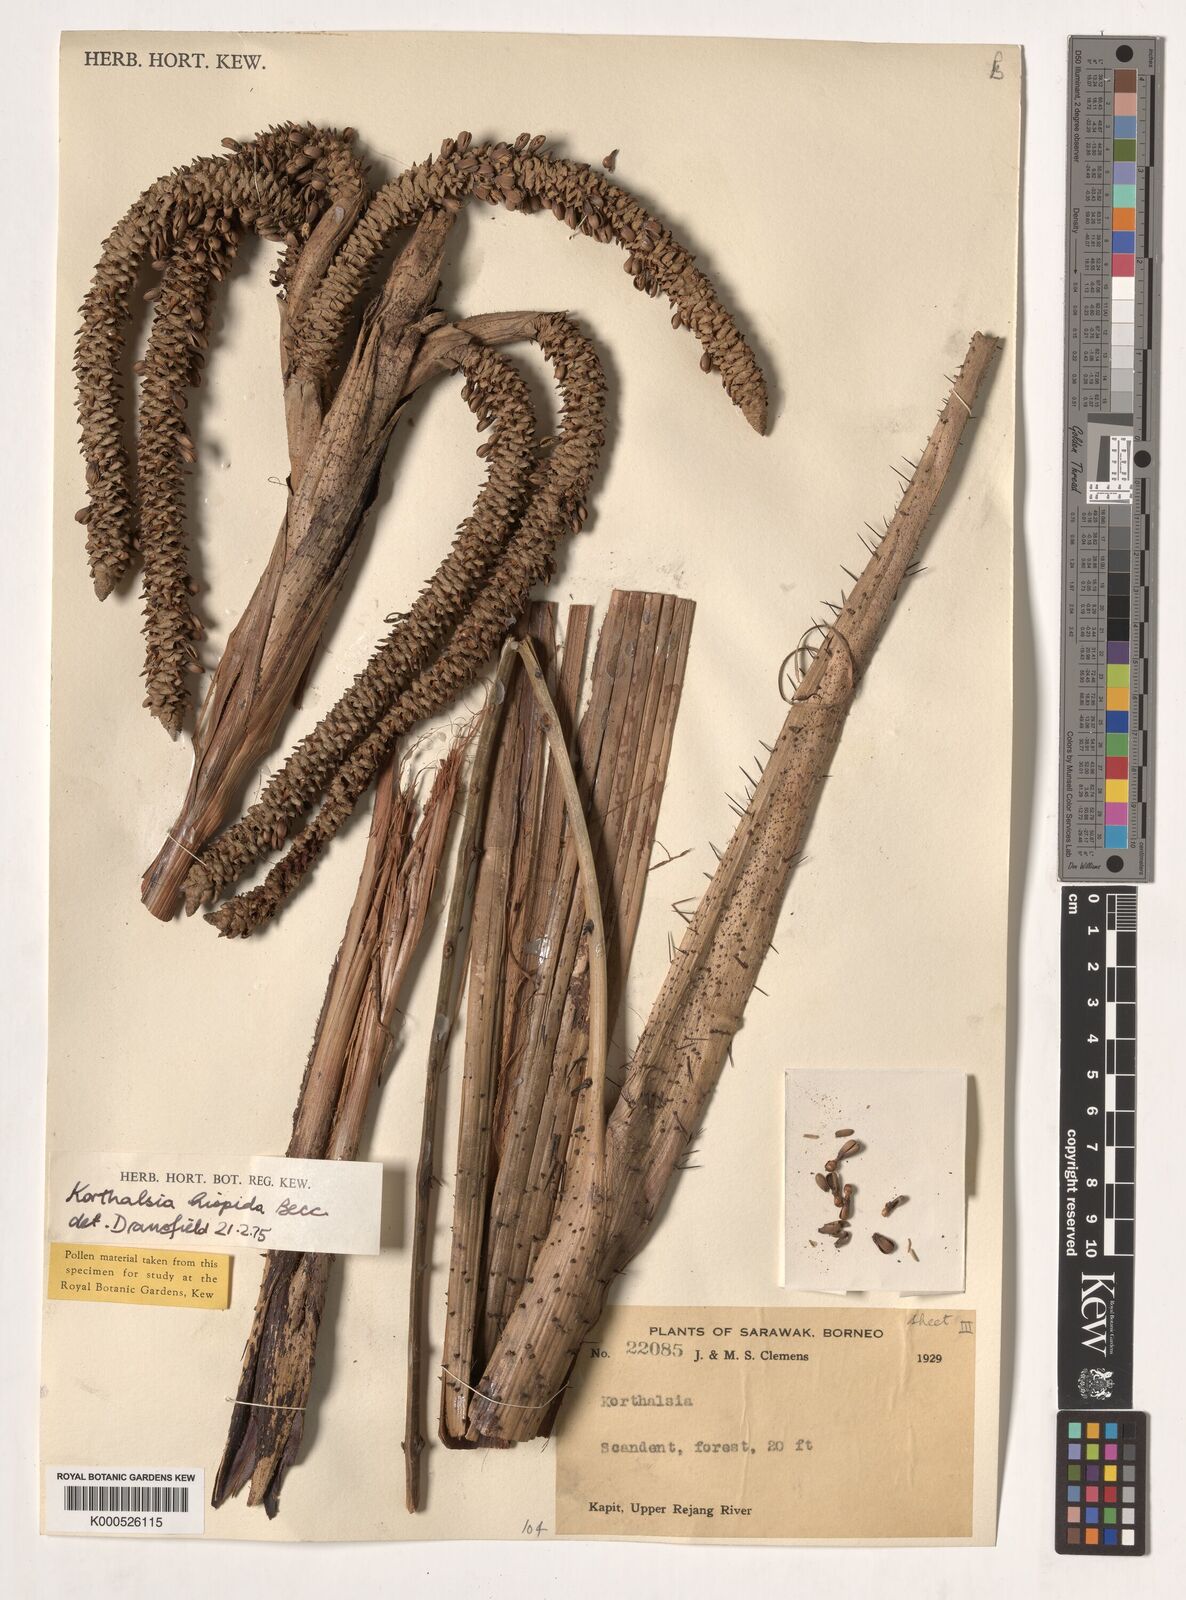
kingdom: Plantae
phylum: Tracheophyta
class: Liliopsida
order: Arecales
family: Arecaceae
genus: Korthalsia
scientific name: Korthalsia hispida
